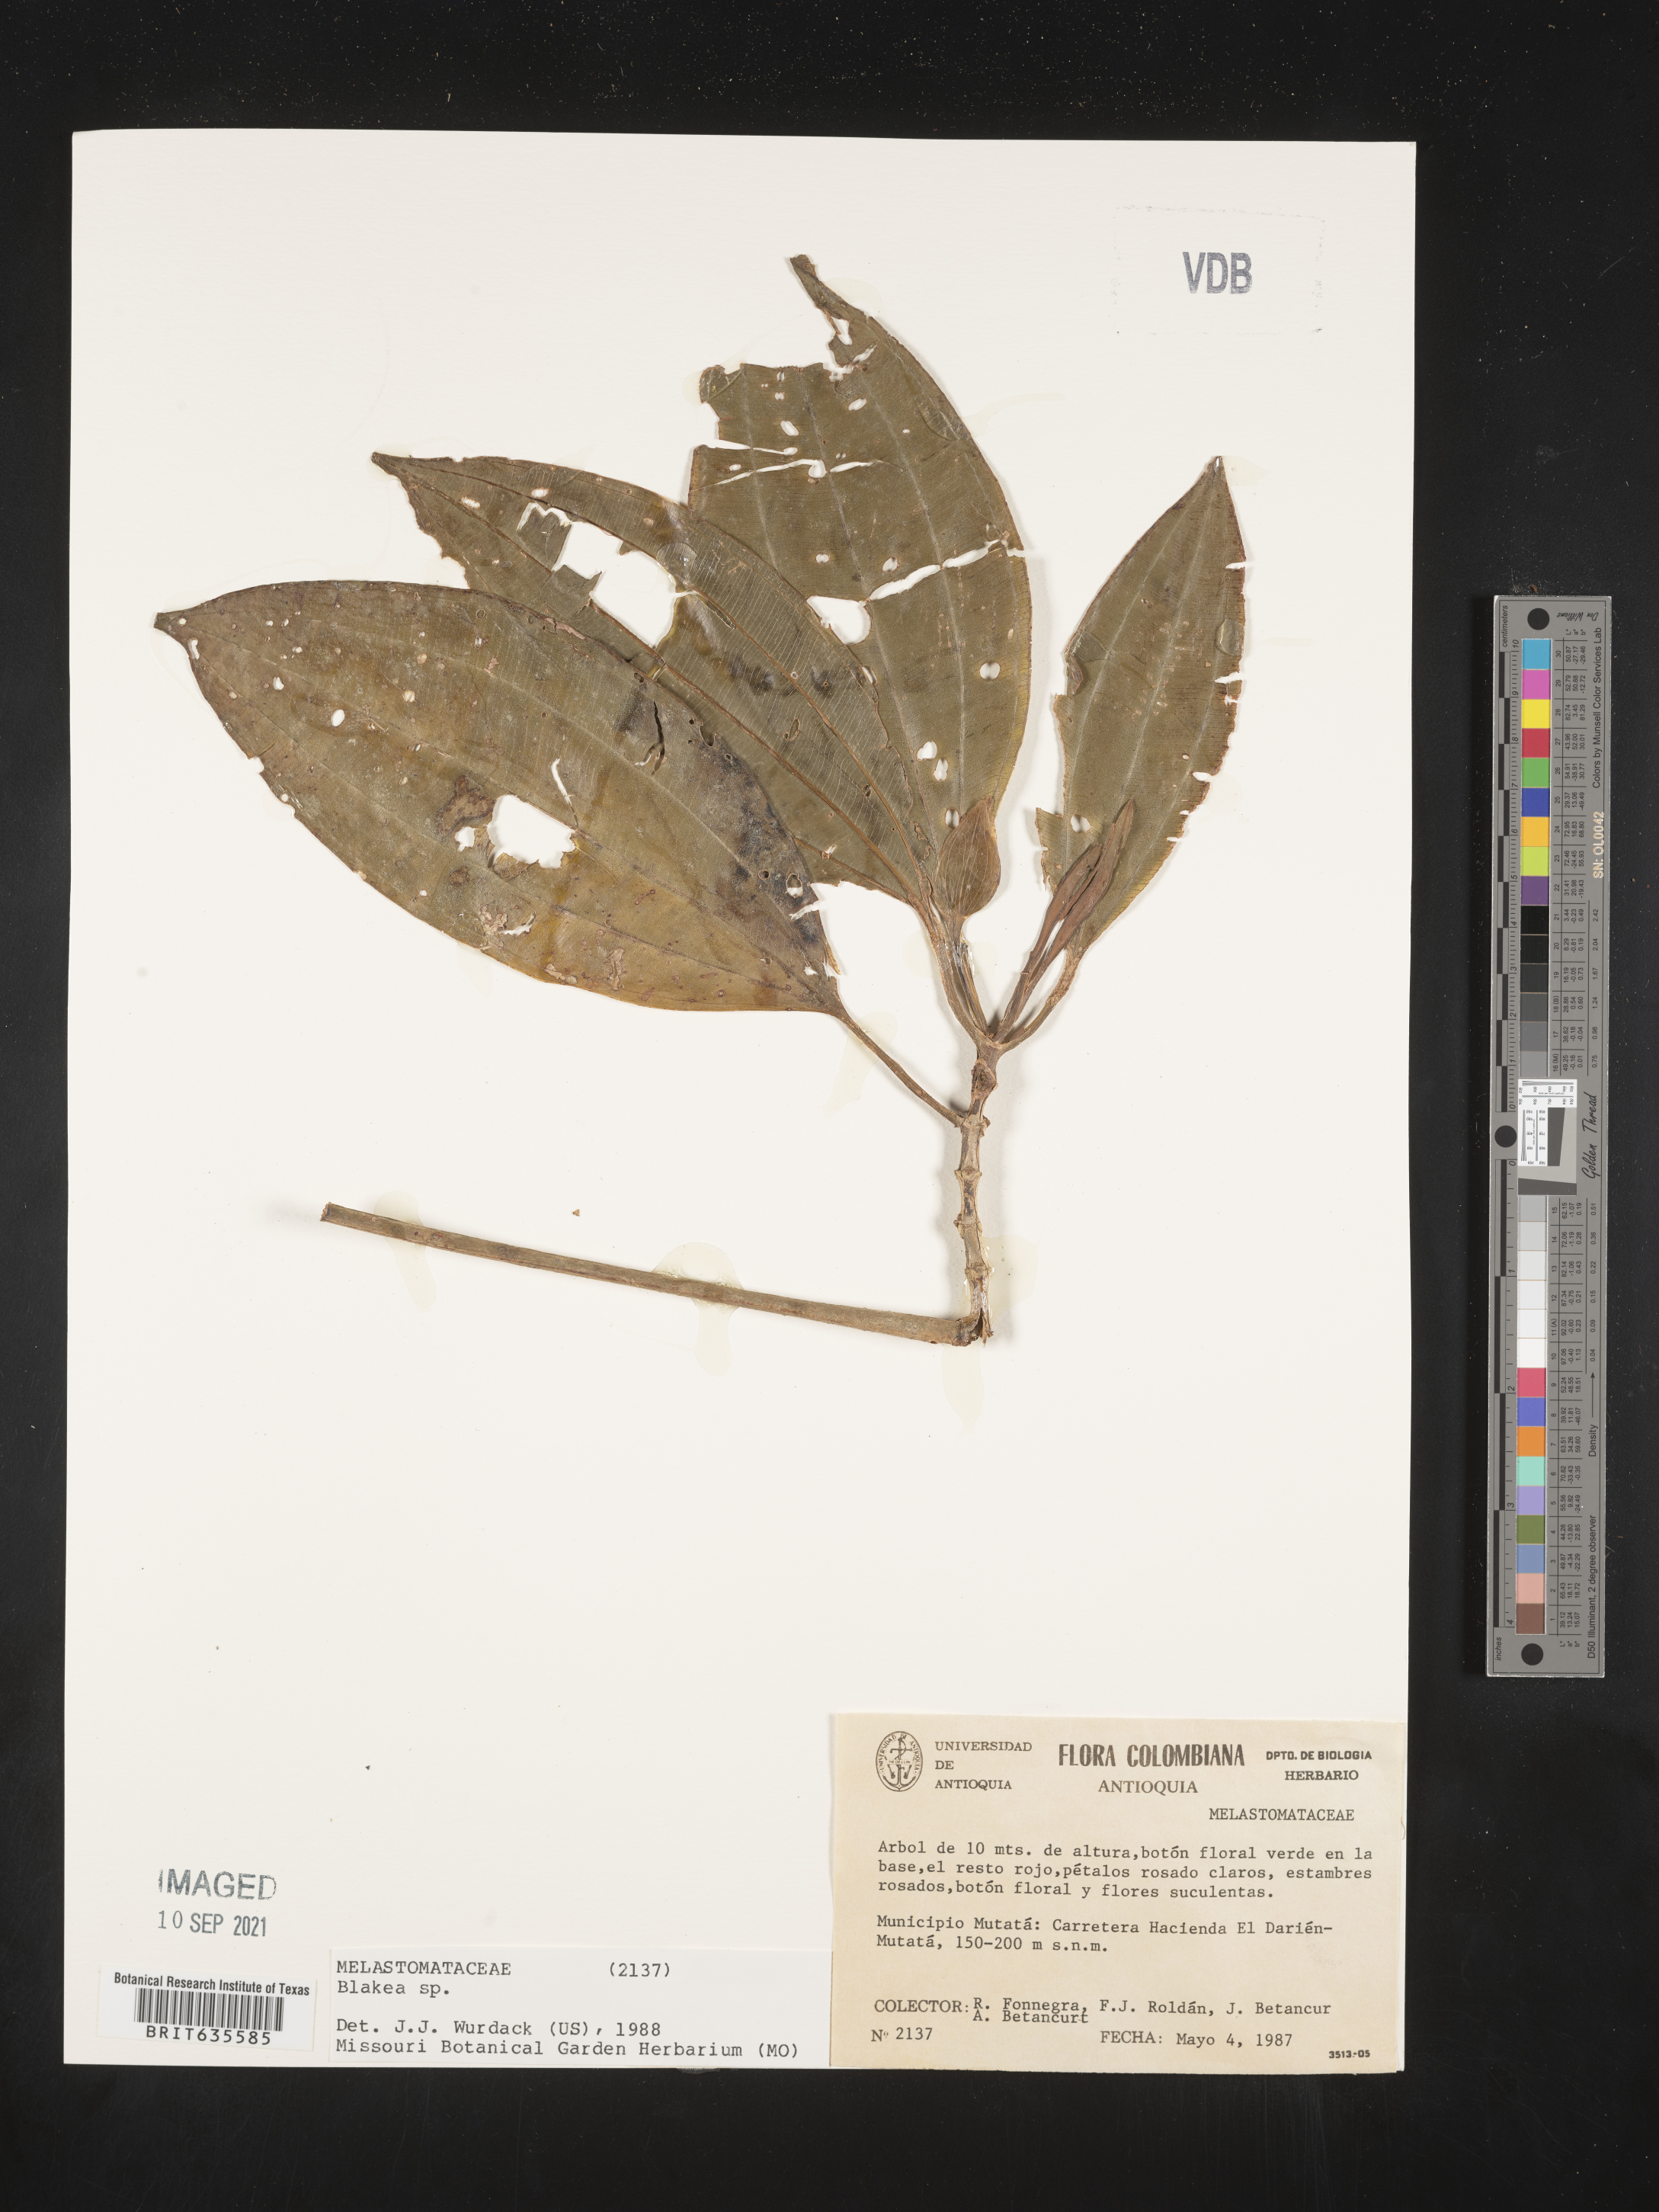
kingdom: Plantae
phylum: Tracheophyta
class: Magnoliopsida
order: Myrtales
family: Melastomataceae
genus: Blakea
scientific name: Blakea
